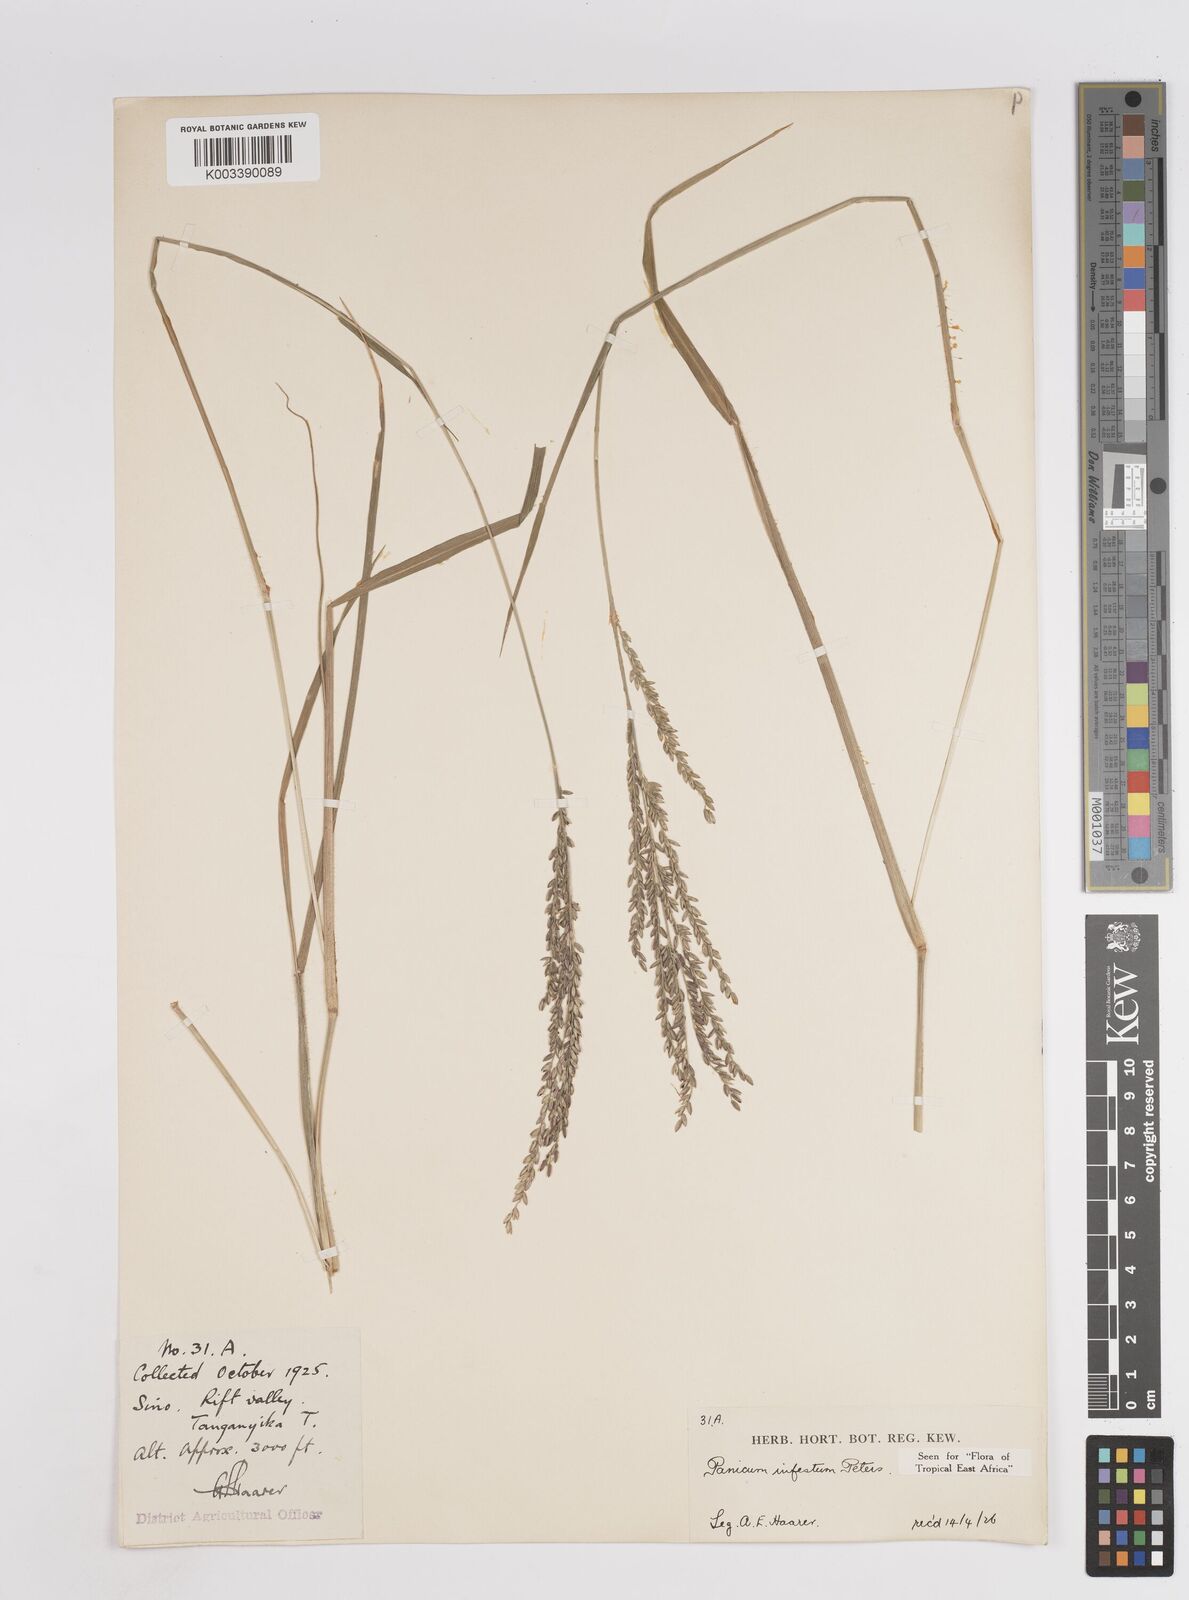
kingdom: Plantae
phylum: Tracheophyta
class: Liliopsida
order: Poales
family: Poaceae
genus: Megathyrsus
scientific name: Megathyrsus infestus
